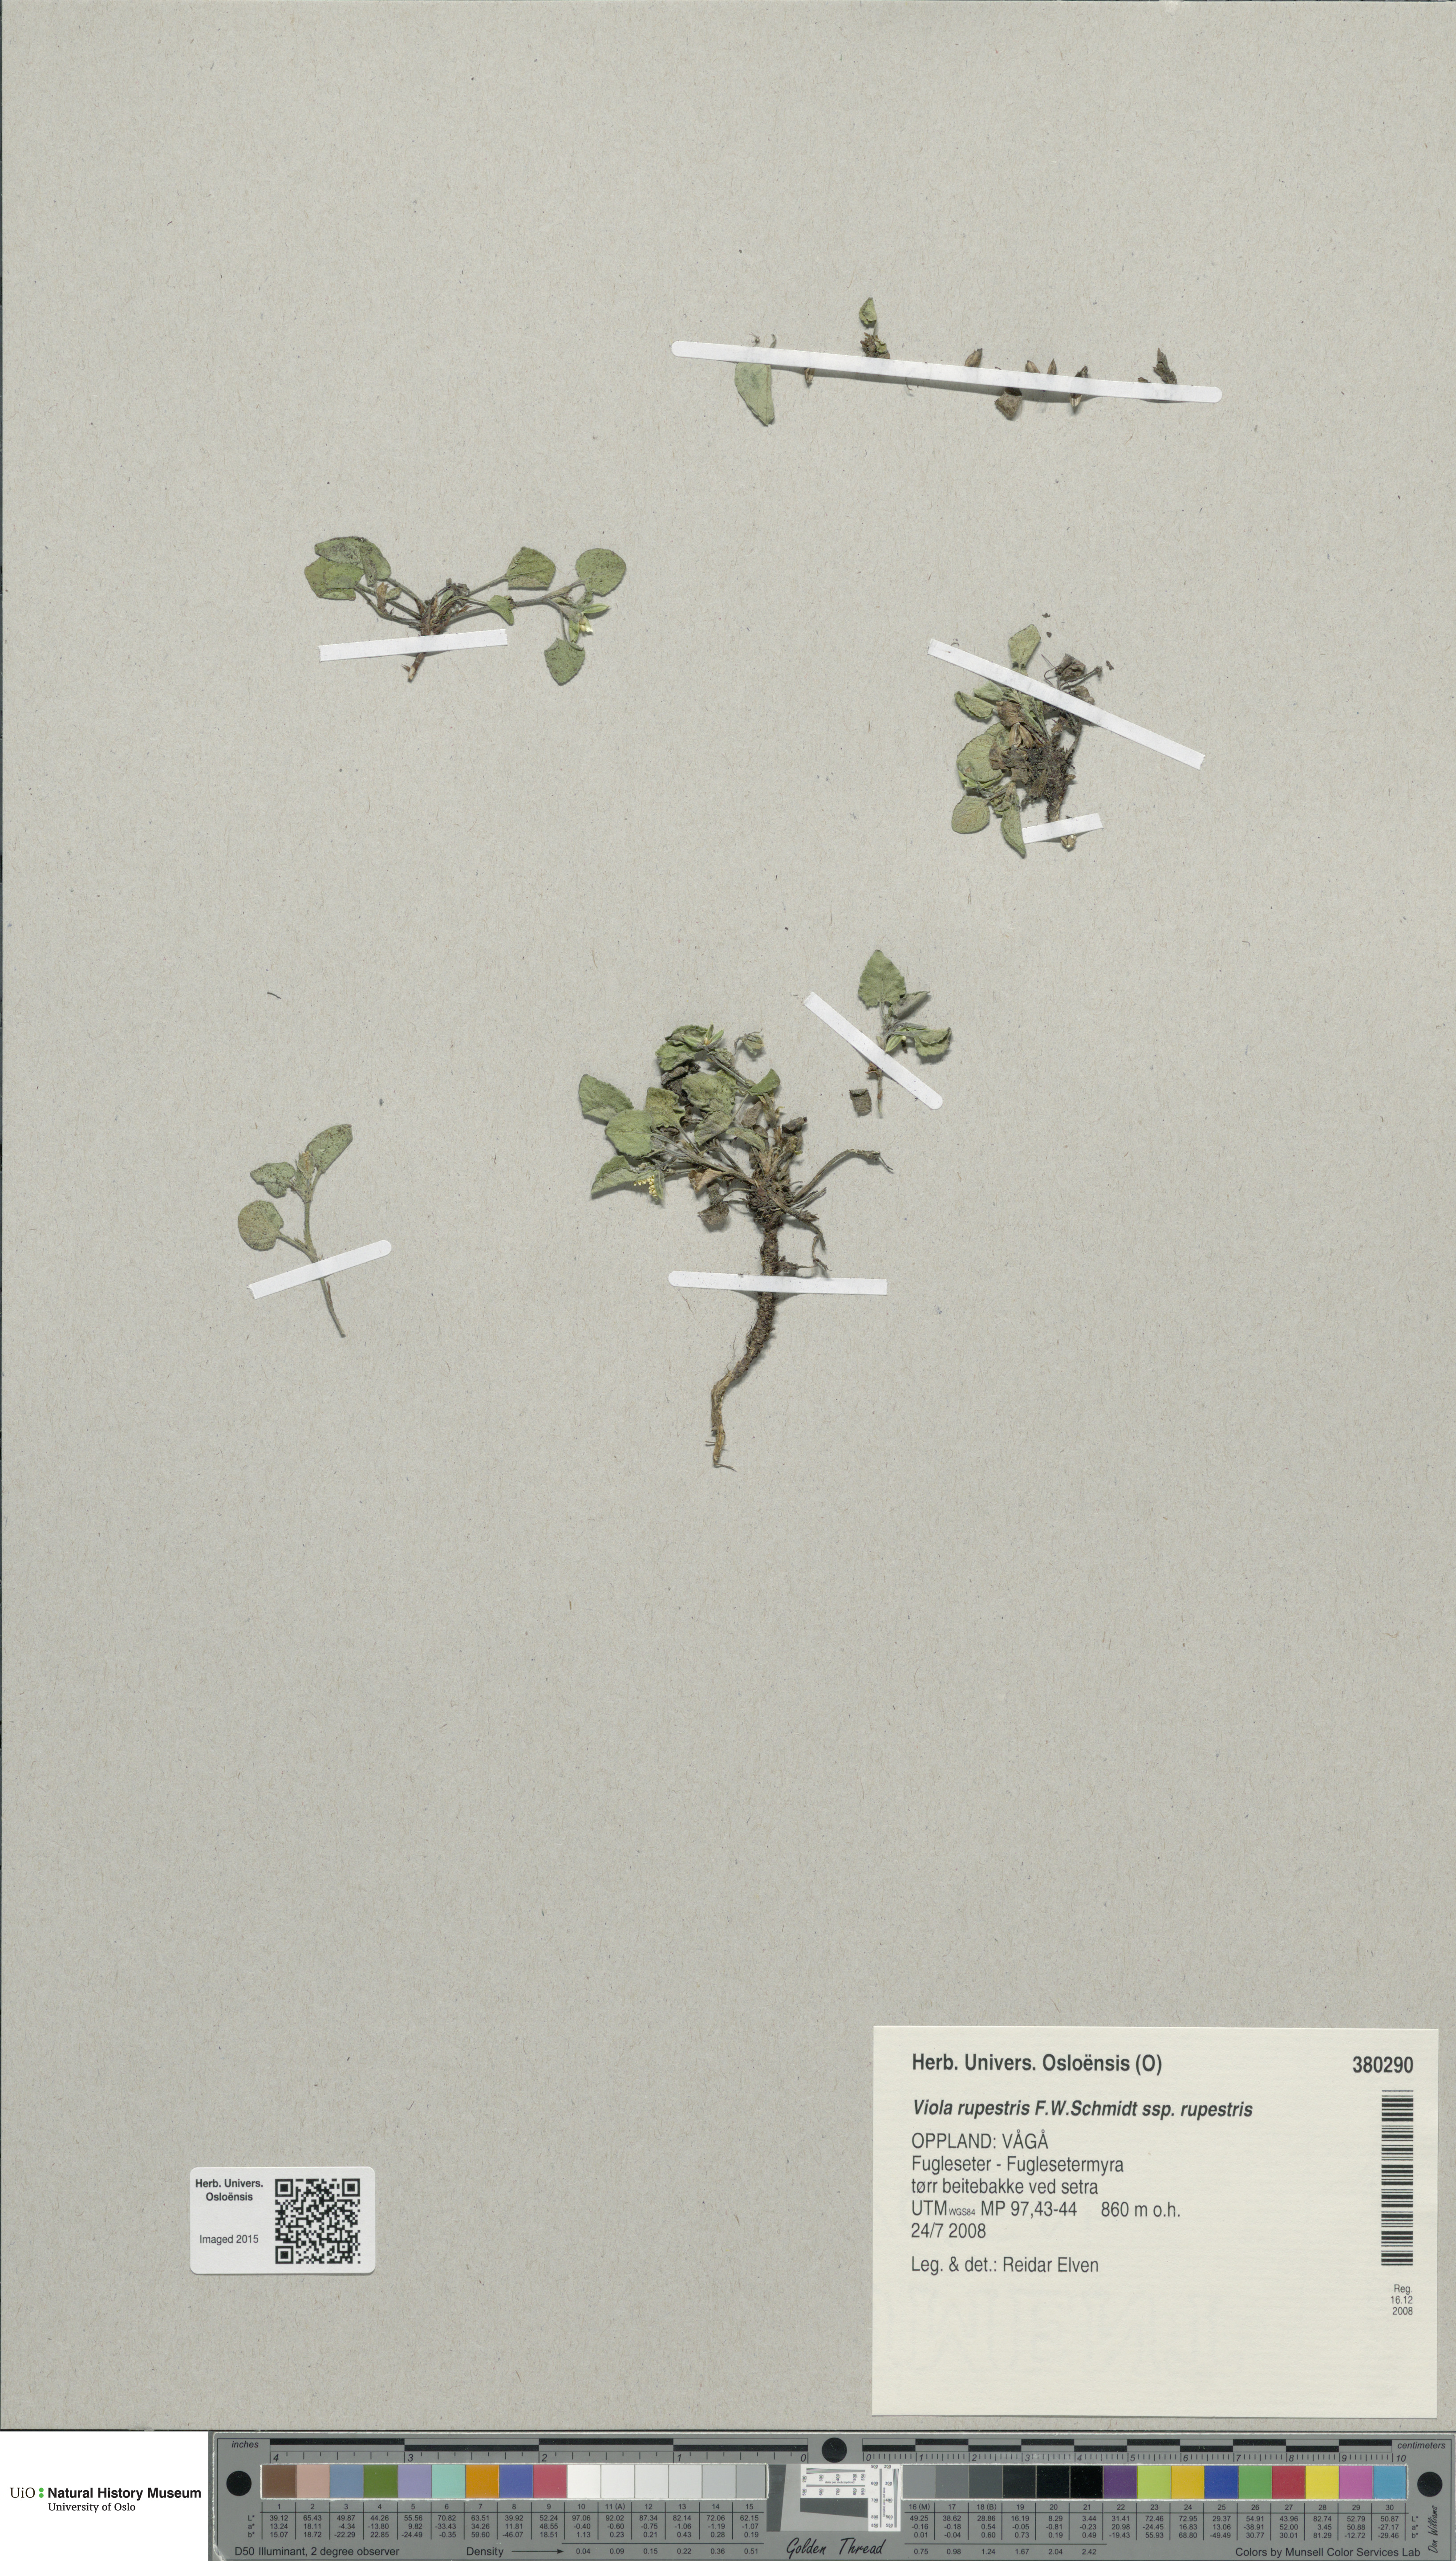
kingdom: Plantae
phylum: Tracheophyta
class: Magnoliopsida
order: Malpighiales
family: Violaceae
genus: Viola
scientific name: Viola rupestris
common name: Teesdale violet
